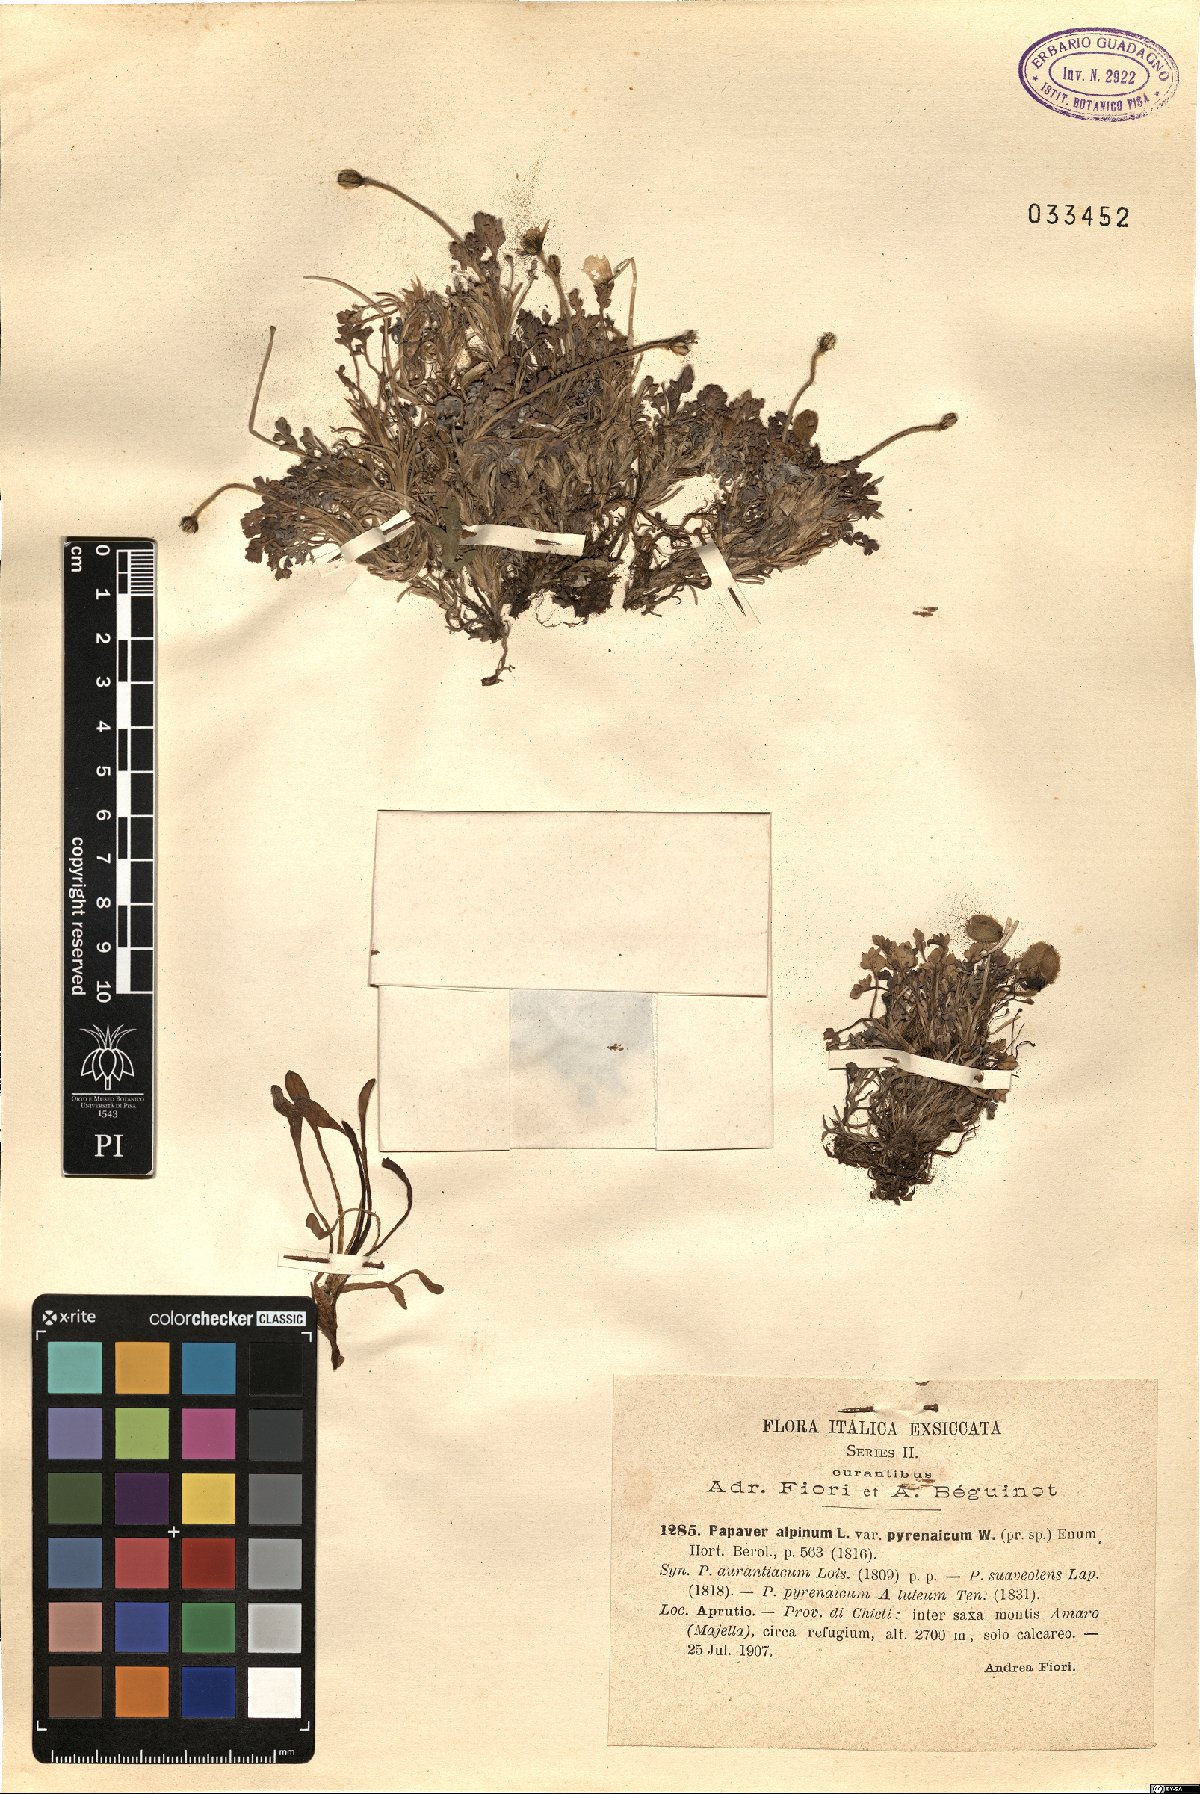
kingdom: Plantae
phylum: Tracheophyta
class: Magnoliopsida
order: Ranunculales
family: Papaveraceae
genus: Papaver
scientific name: Papaver alpinum
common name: Austrian poppy
